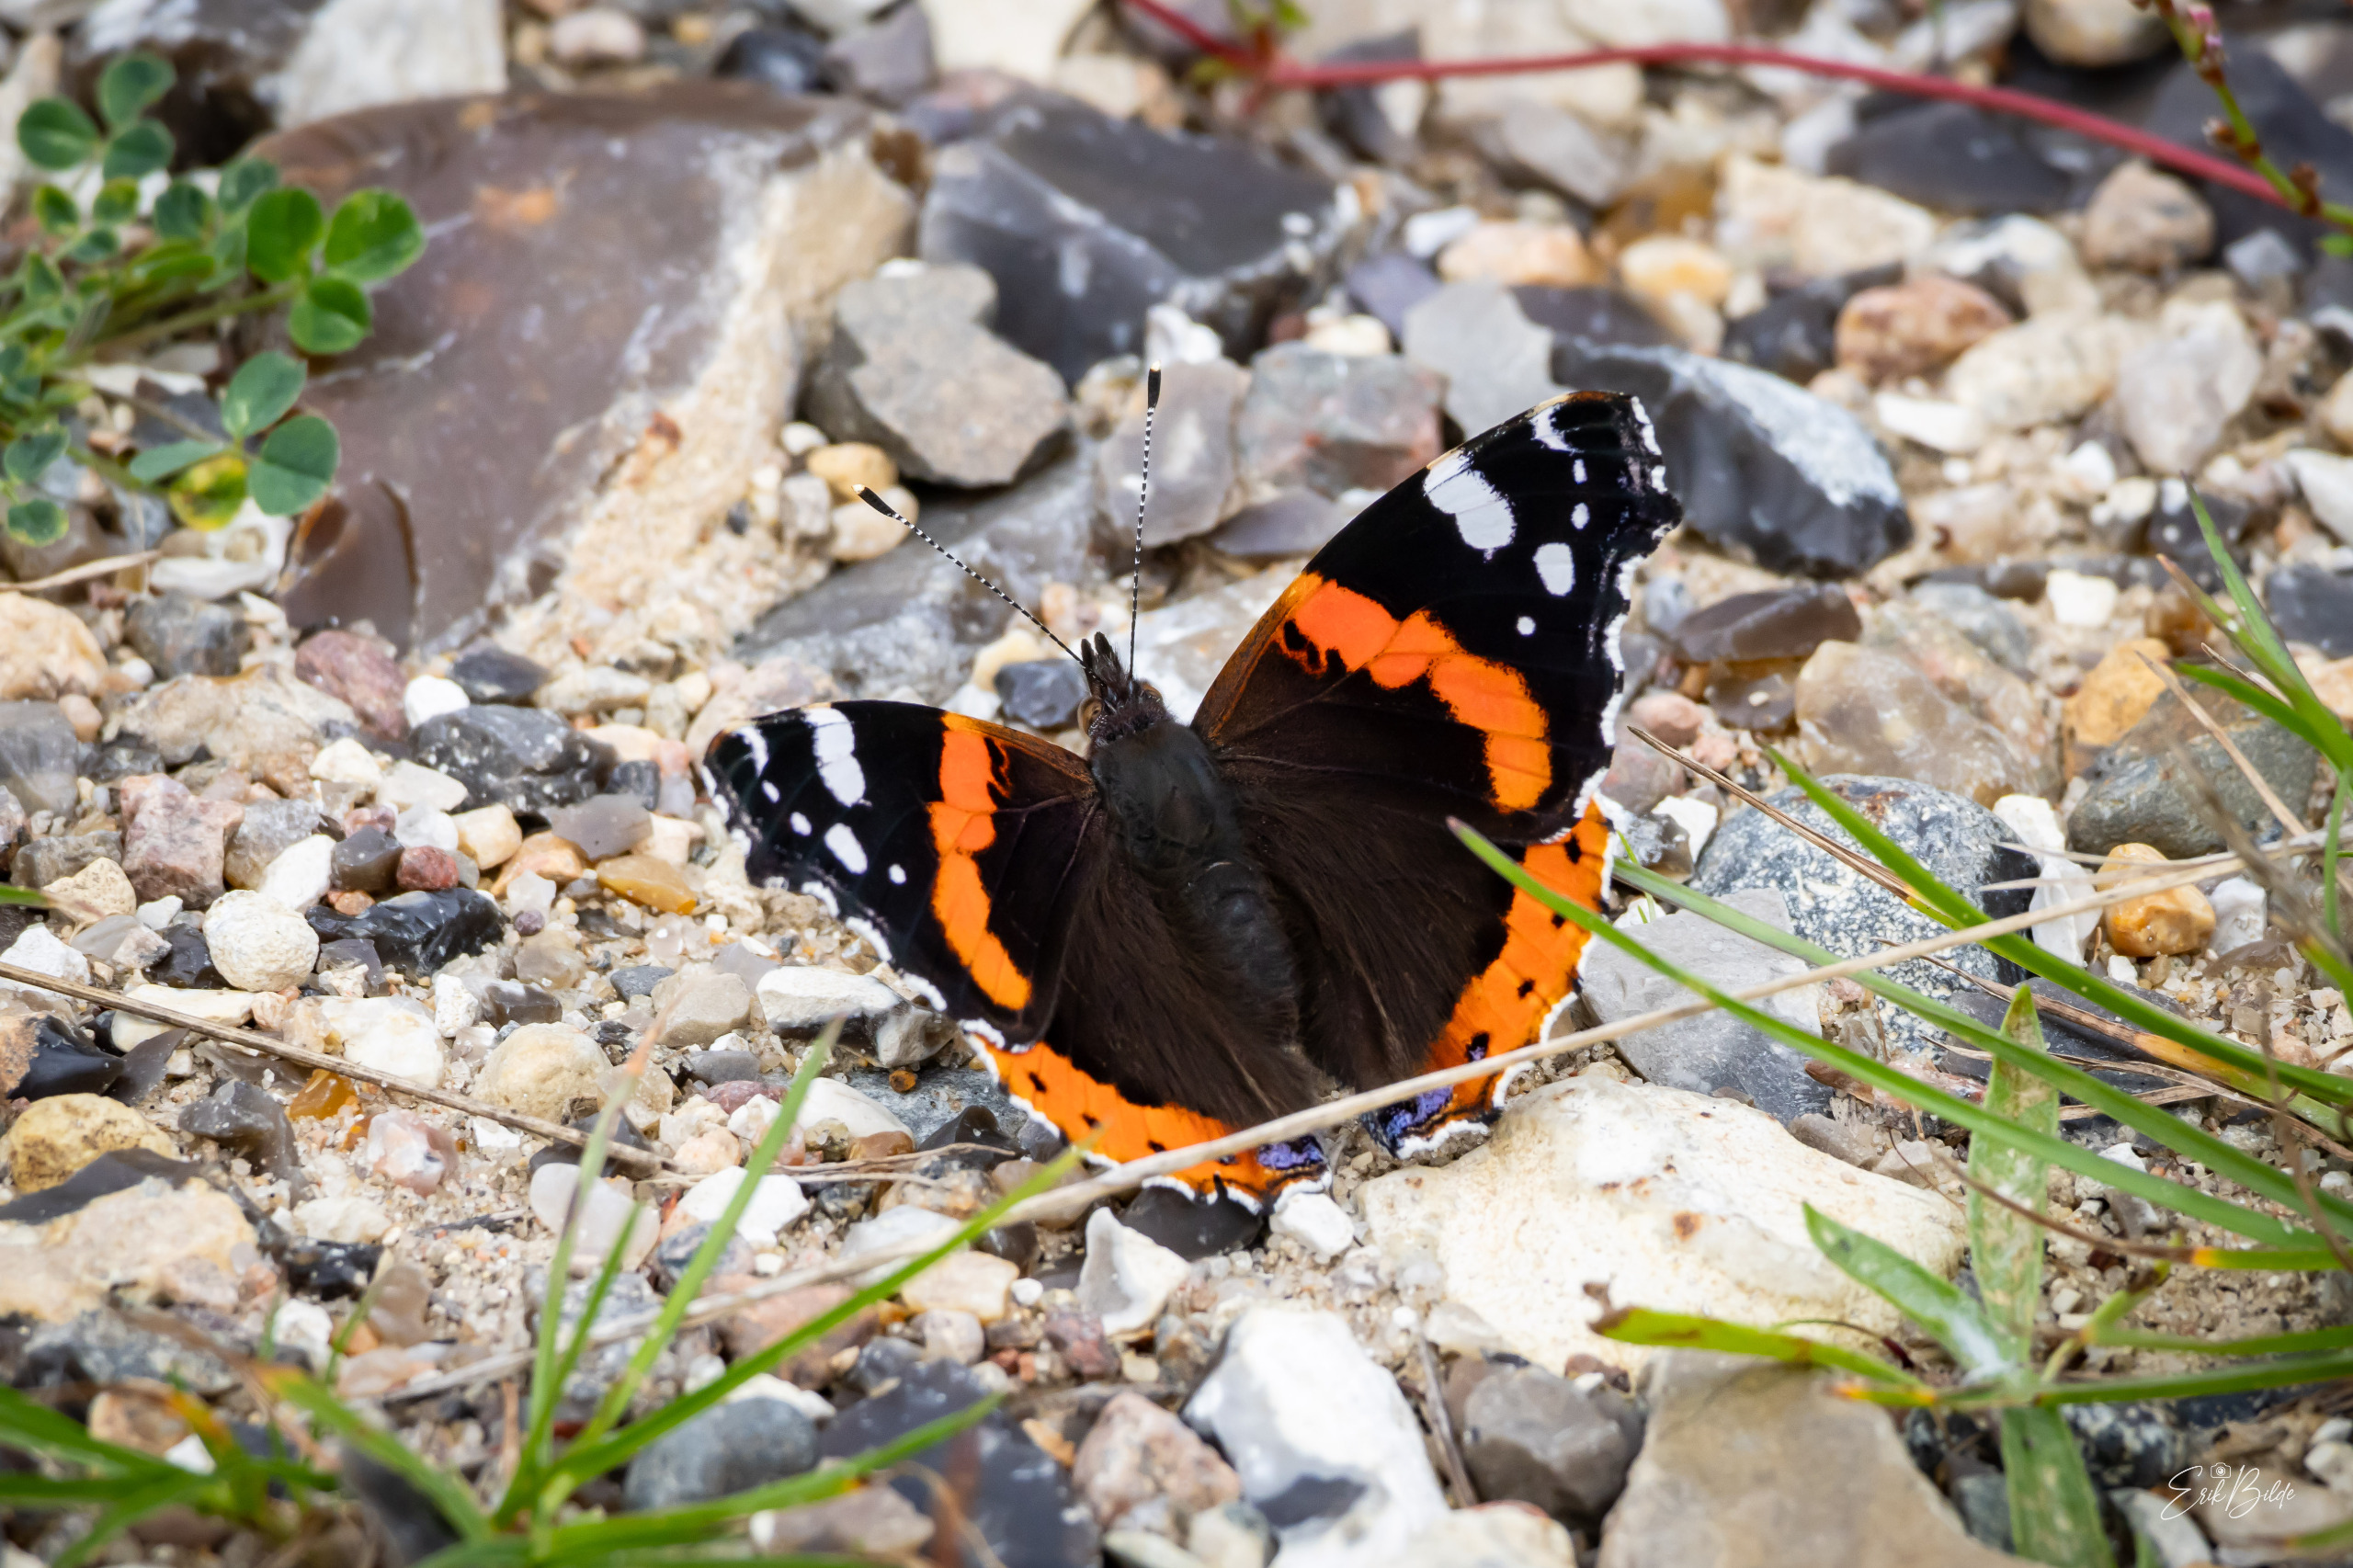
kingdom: Animalia
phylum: Arthropoda
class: Insecta
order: Lepidoptera
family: Nymphalidae
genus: Vanessa
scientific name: Vanessa atalanta
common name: Admiral
